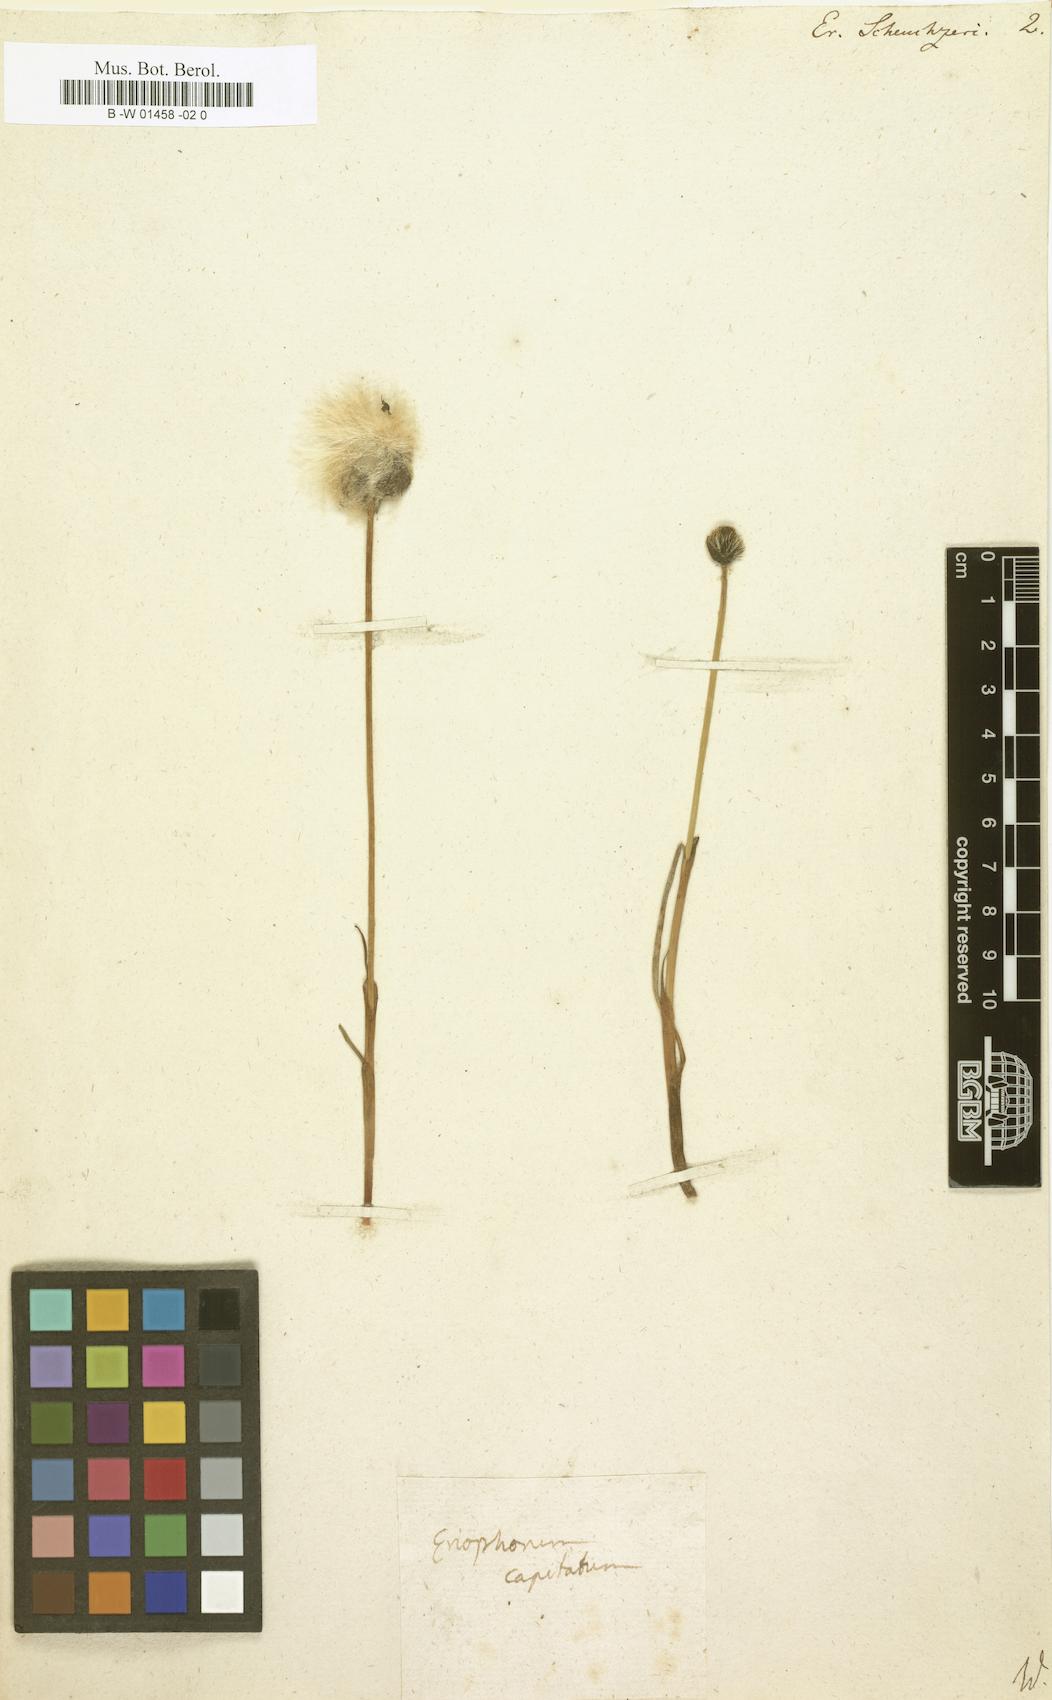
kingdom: Plantae
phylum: Tracheophyta
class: Liliopsida
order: Poales
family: Cyperaceae
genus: Eriophorum
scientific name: Eriophorum scheuchzeri
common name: Scheuchzer's cottongrass
